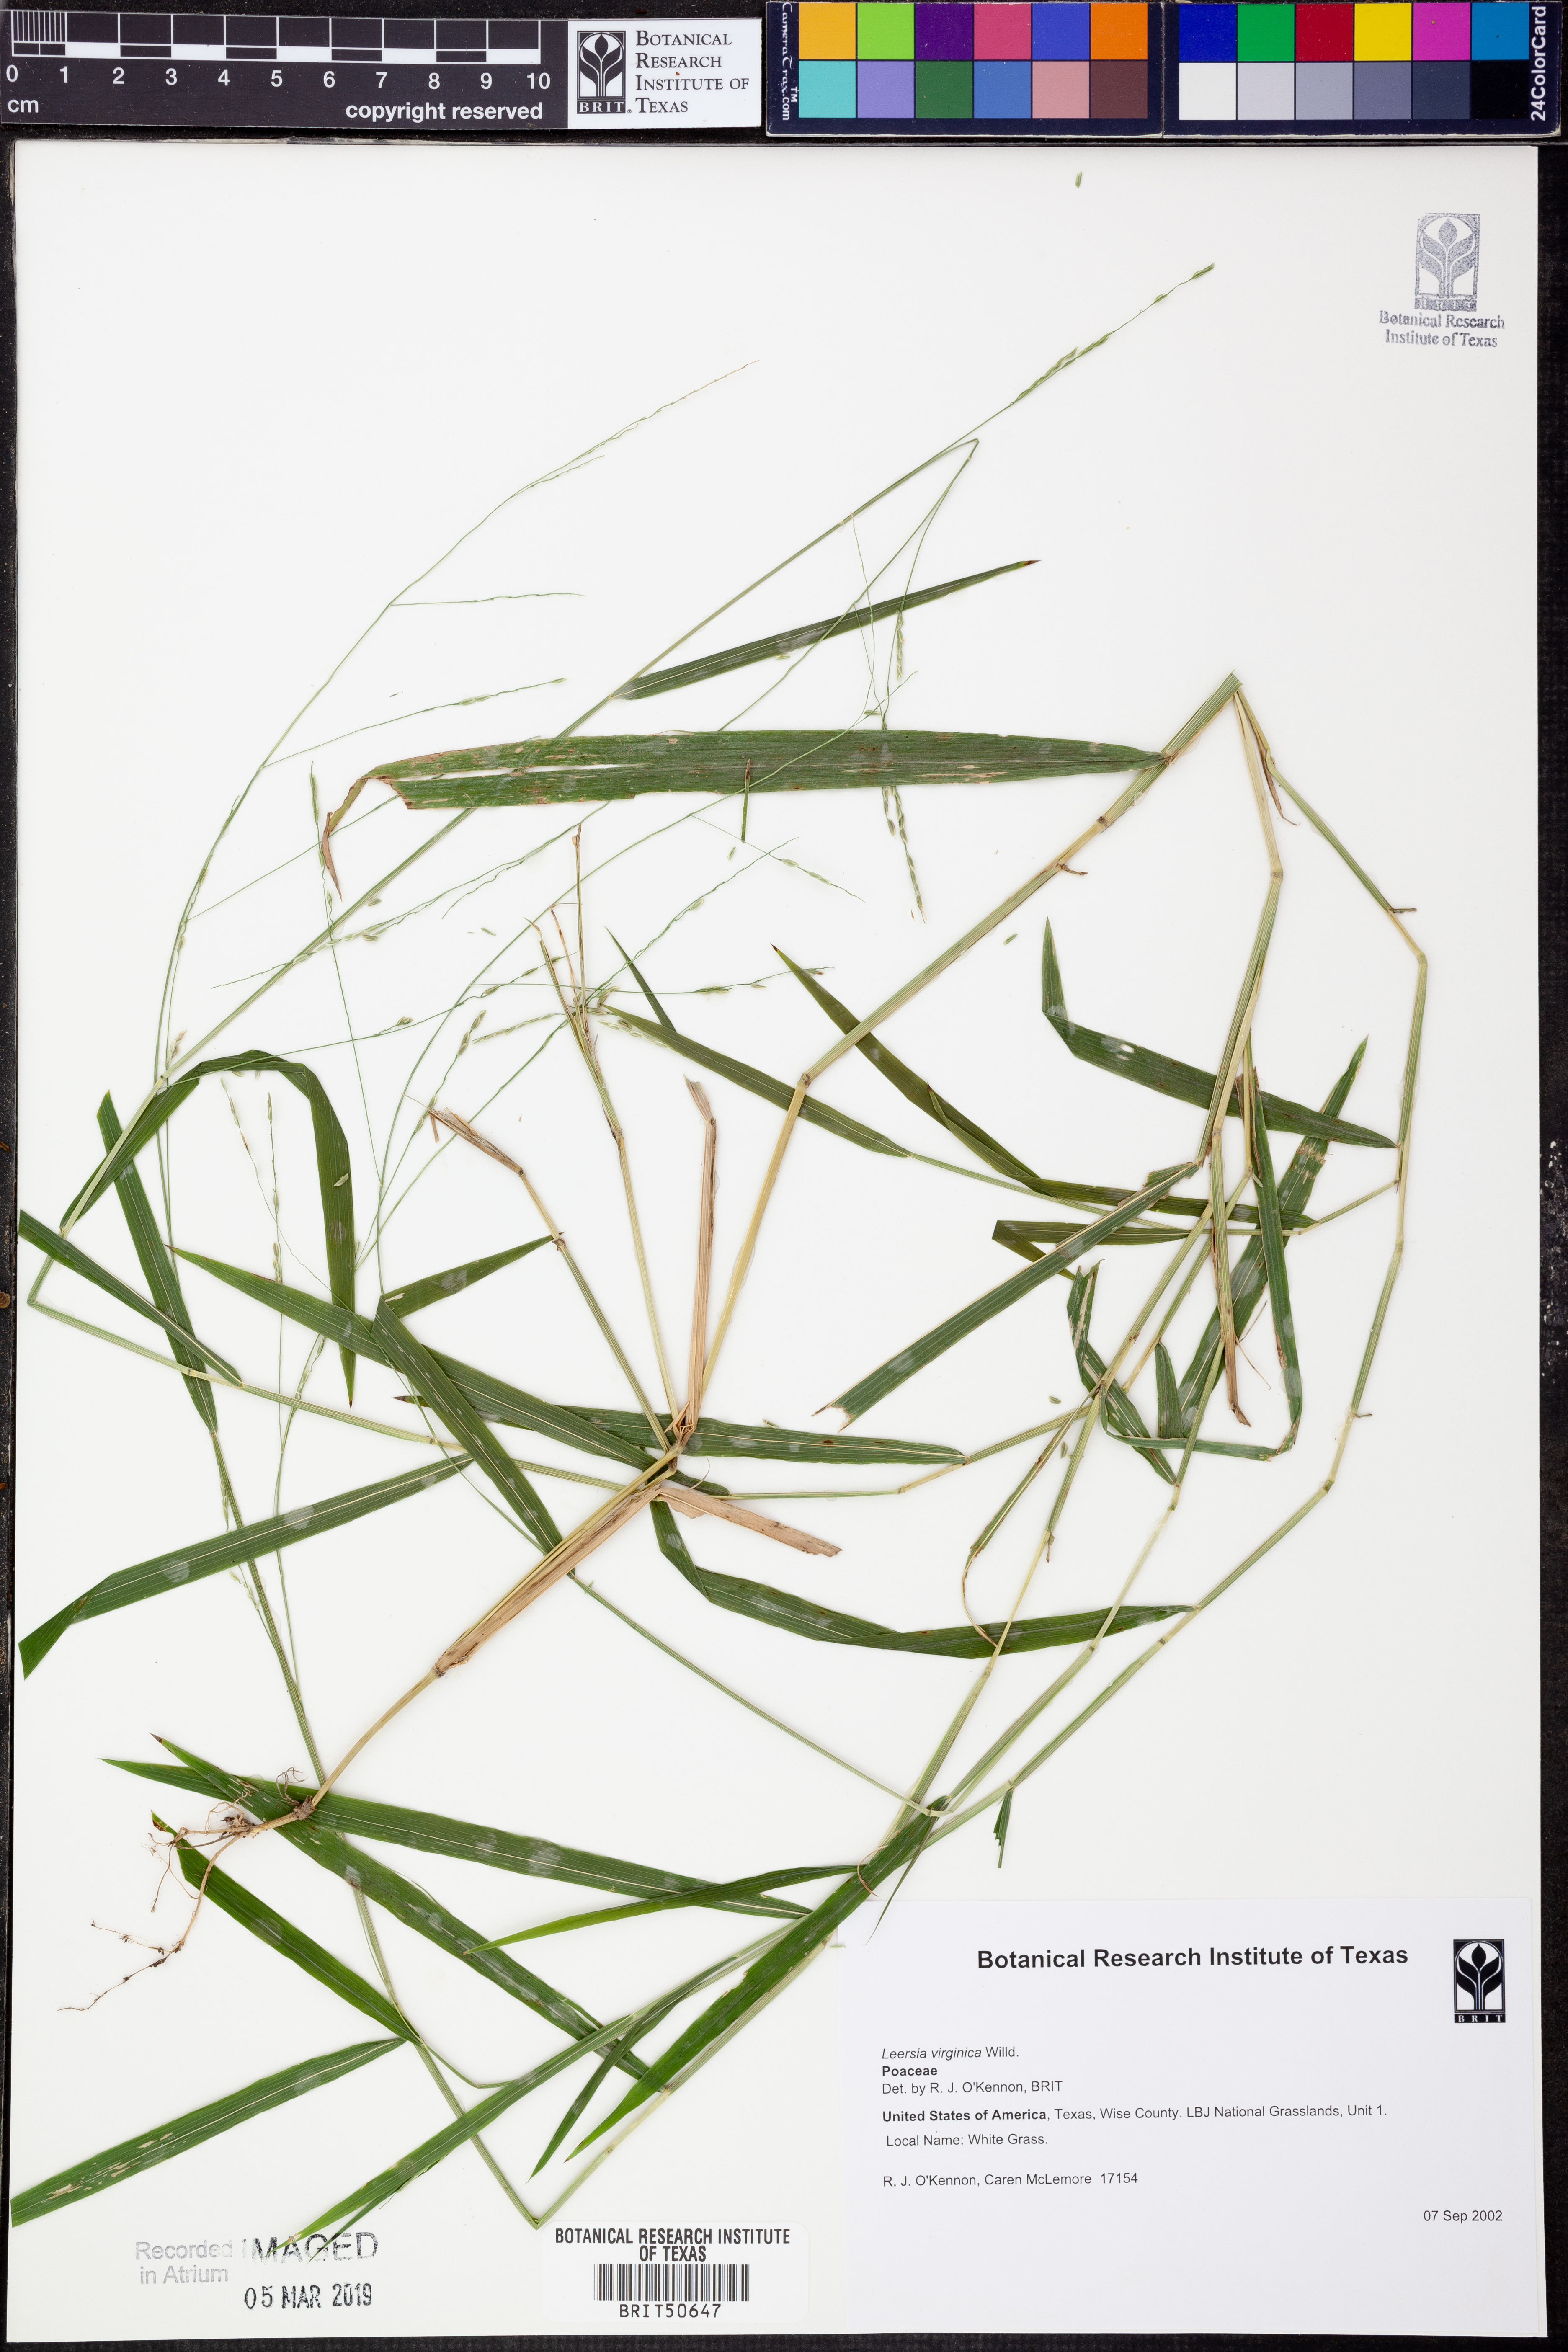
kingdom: Plantae
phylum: Tracheophyta
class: Liliopsida
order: Poales
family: Poaceae
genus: Leersia
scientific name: Leersia virginica
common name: White cutgrass
